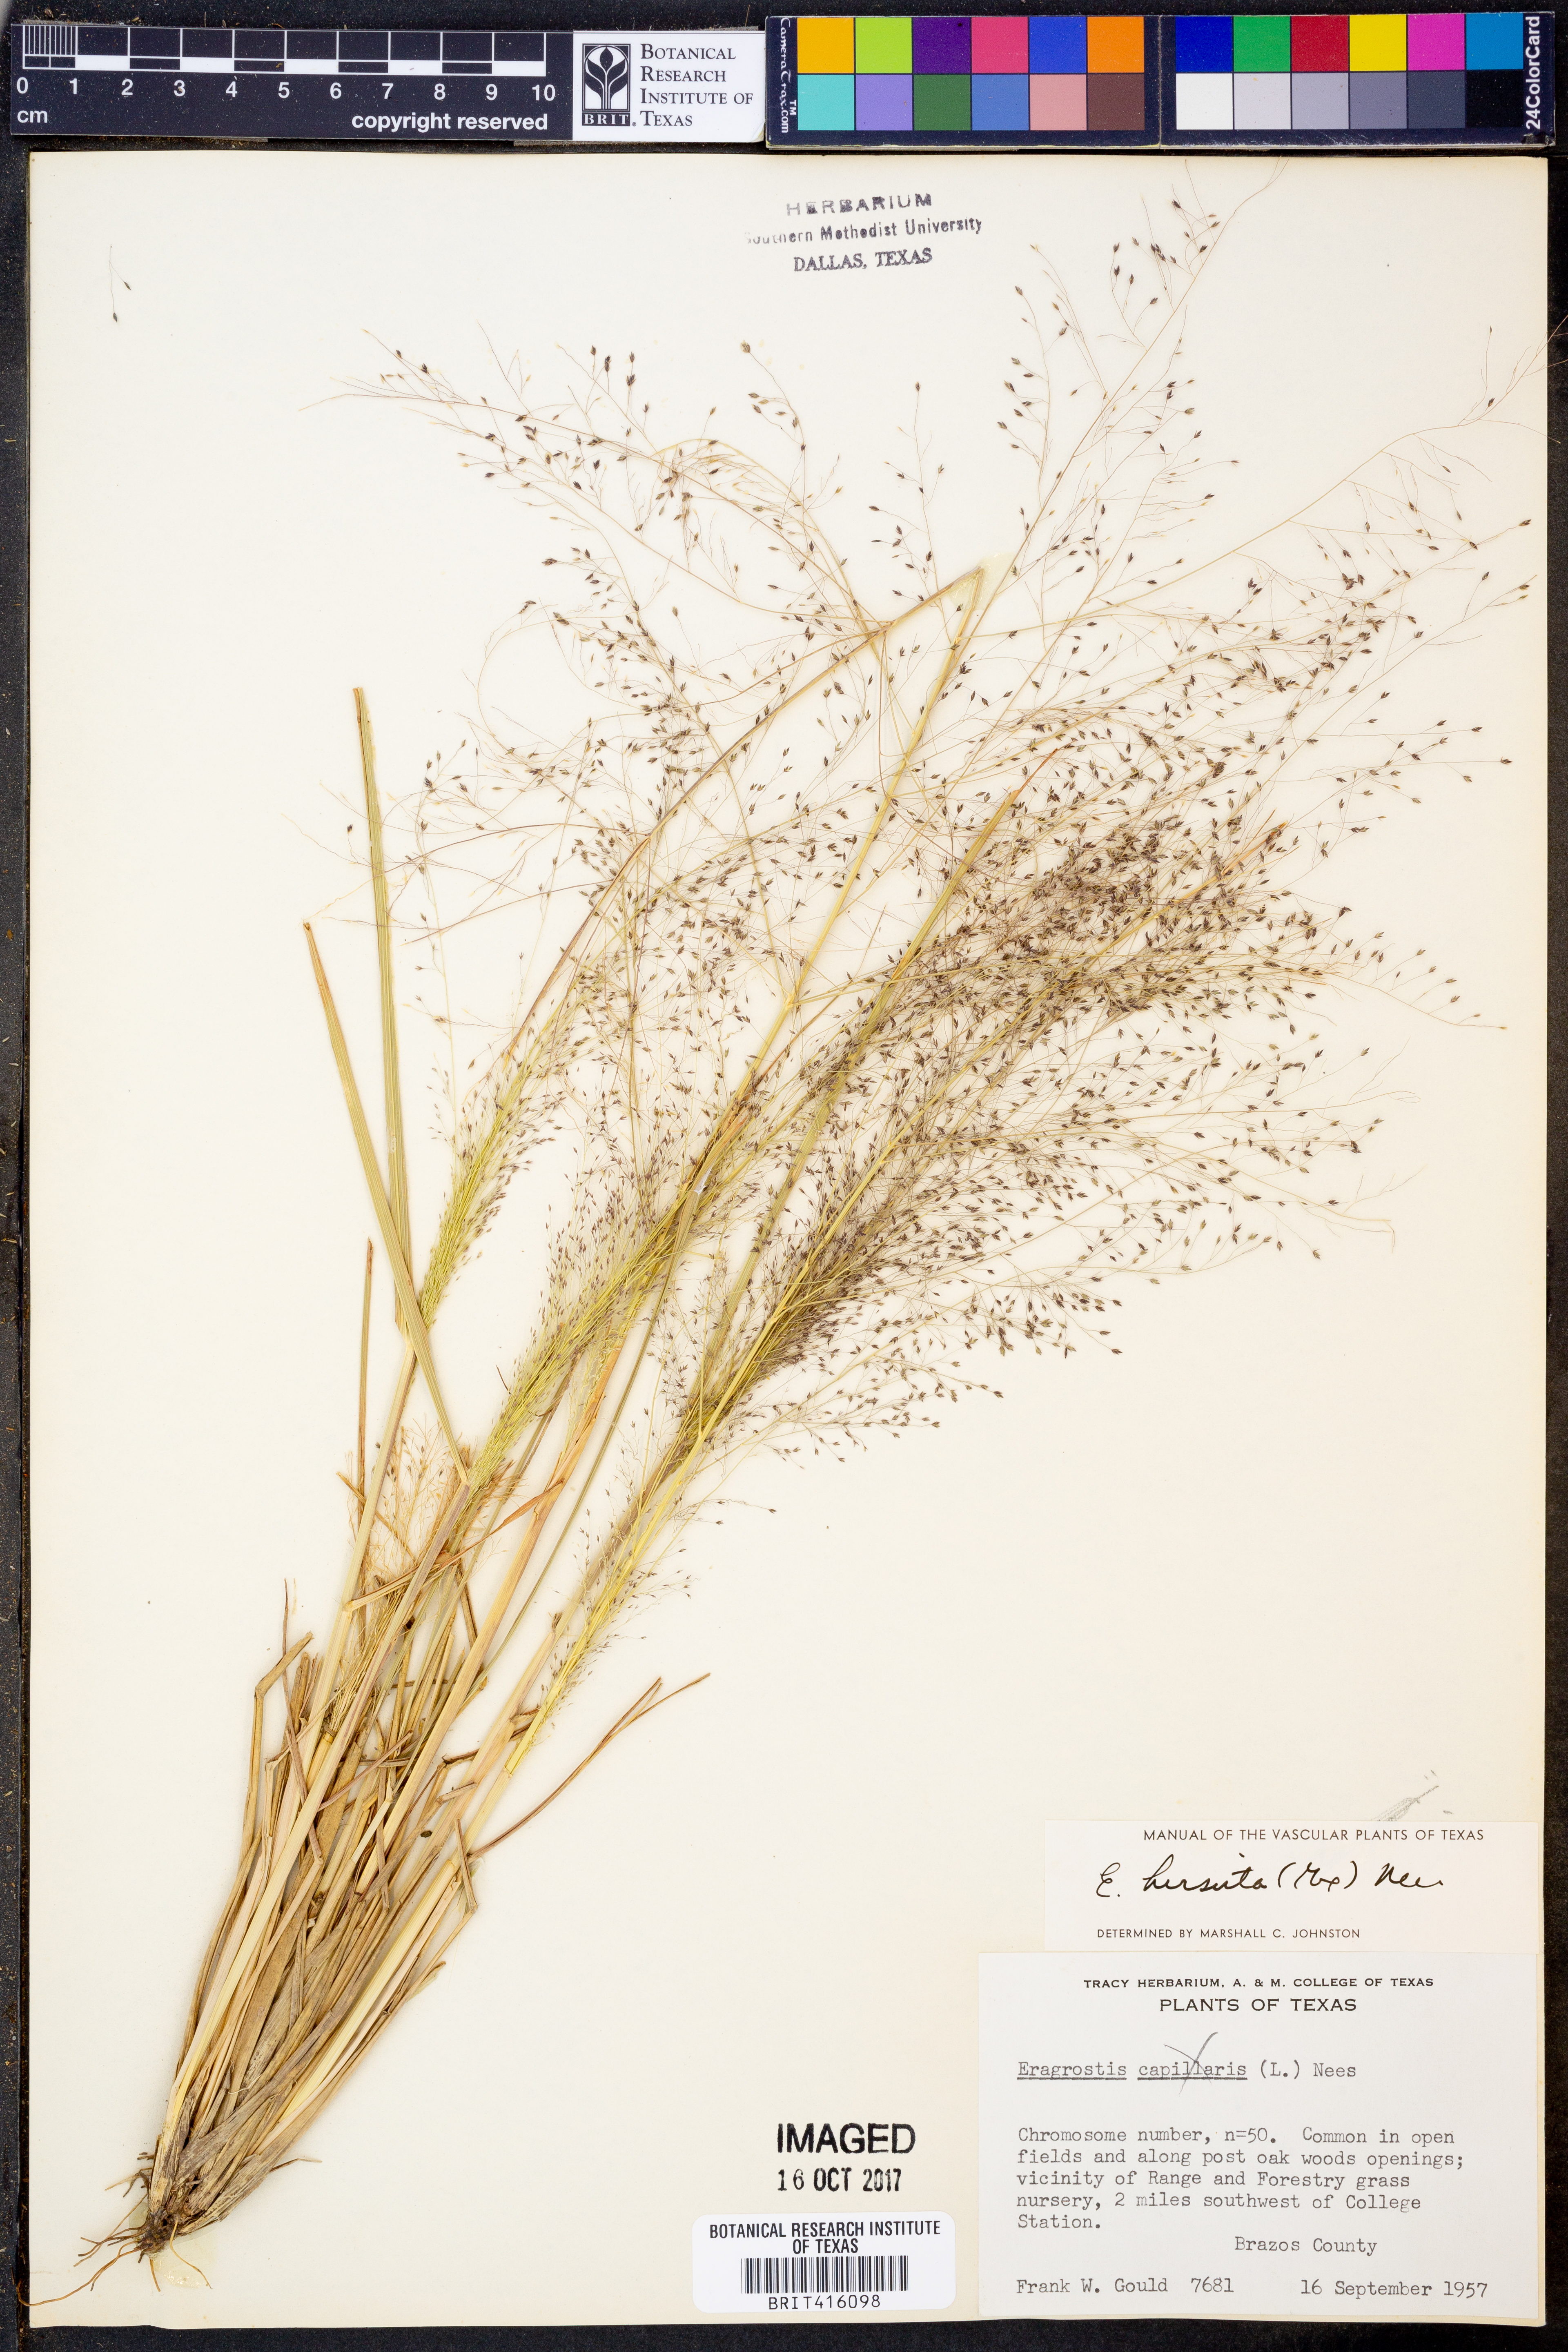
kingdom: Plantae
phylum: Tracheophyta
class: Liliopsida
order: Poales
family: Poaceae
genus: Eragrostis
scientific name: Eragrostis hirsuta
